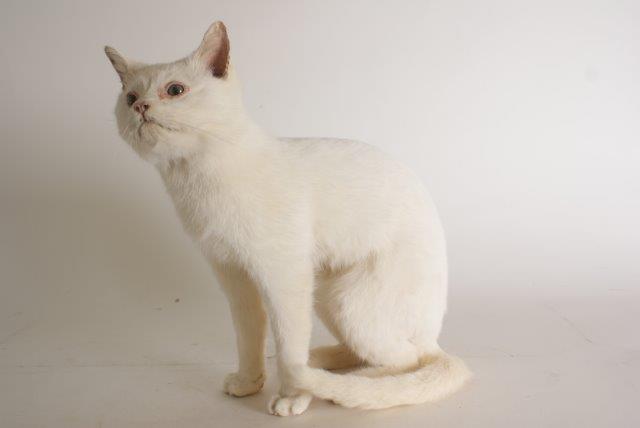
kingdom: Animalia
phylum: Chordata
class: Mammalia
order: Carnivora
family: Felidae
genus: Felis
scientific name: Felis catus
